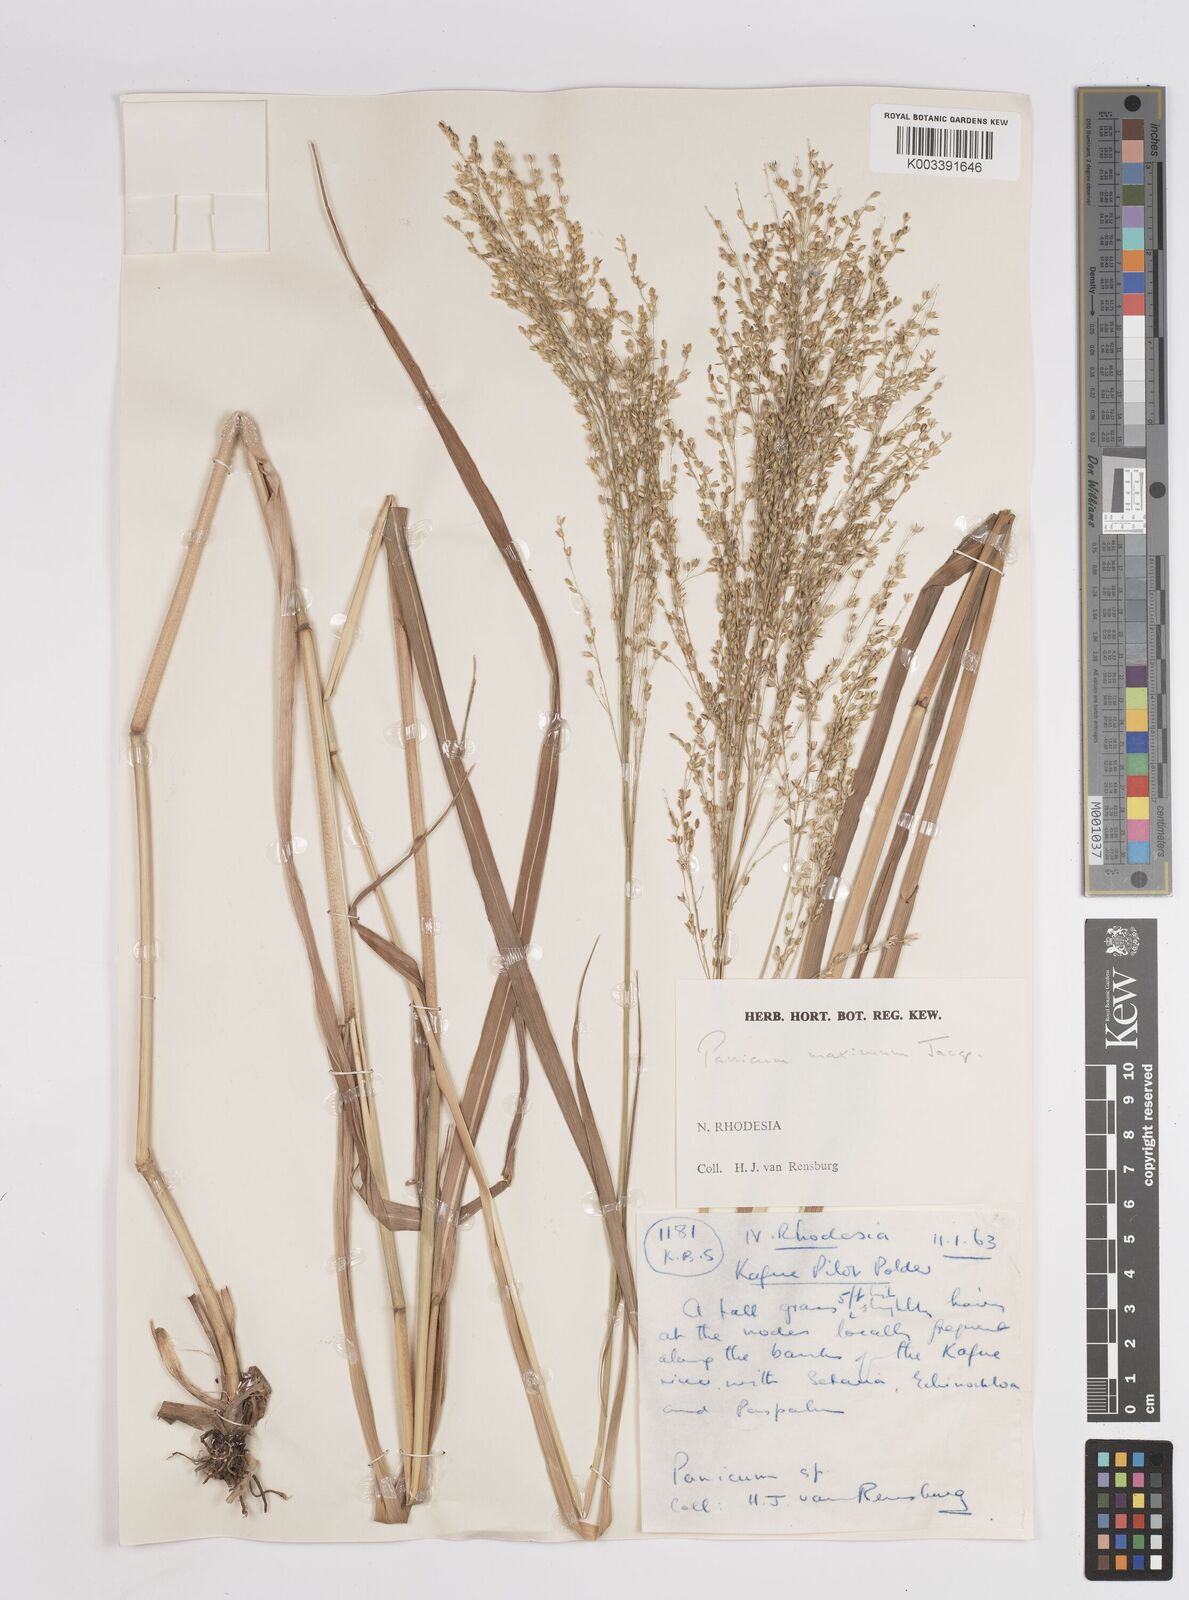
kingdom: Plantae
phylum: Tracheophyta
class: Liliopsida
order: Poales
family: Poaceae
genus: Megathyrsus
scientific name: Megathyrsus maximus
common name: Guineagrass
